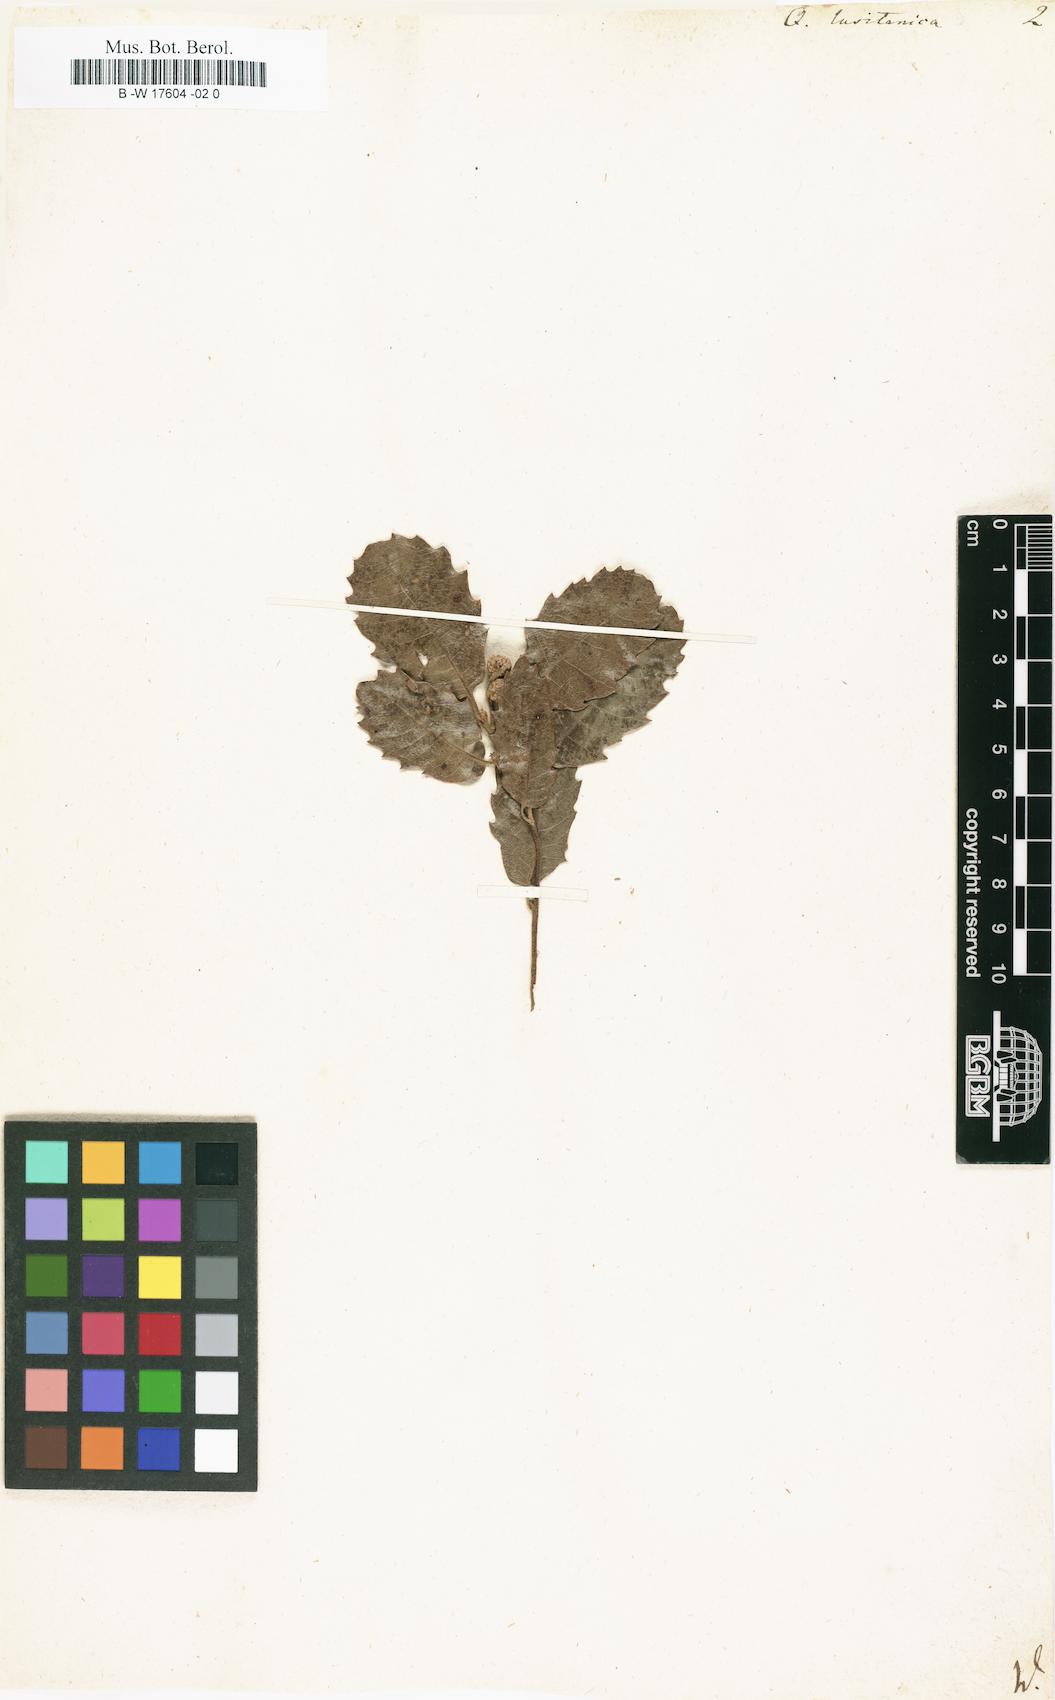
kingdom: Plantae
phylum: Tracheophyta
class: Magnoliopsida
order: Fagales
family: Fagaceae
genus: Quercus
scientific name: Quercus lusitanica
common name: Scrub gall oak
